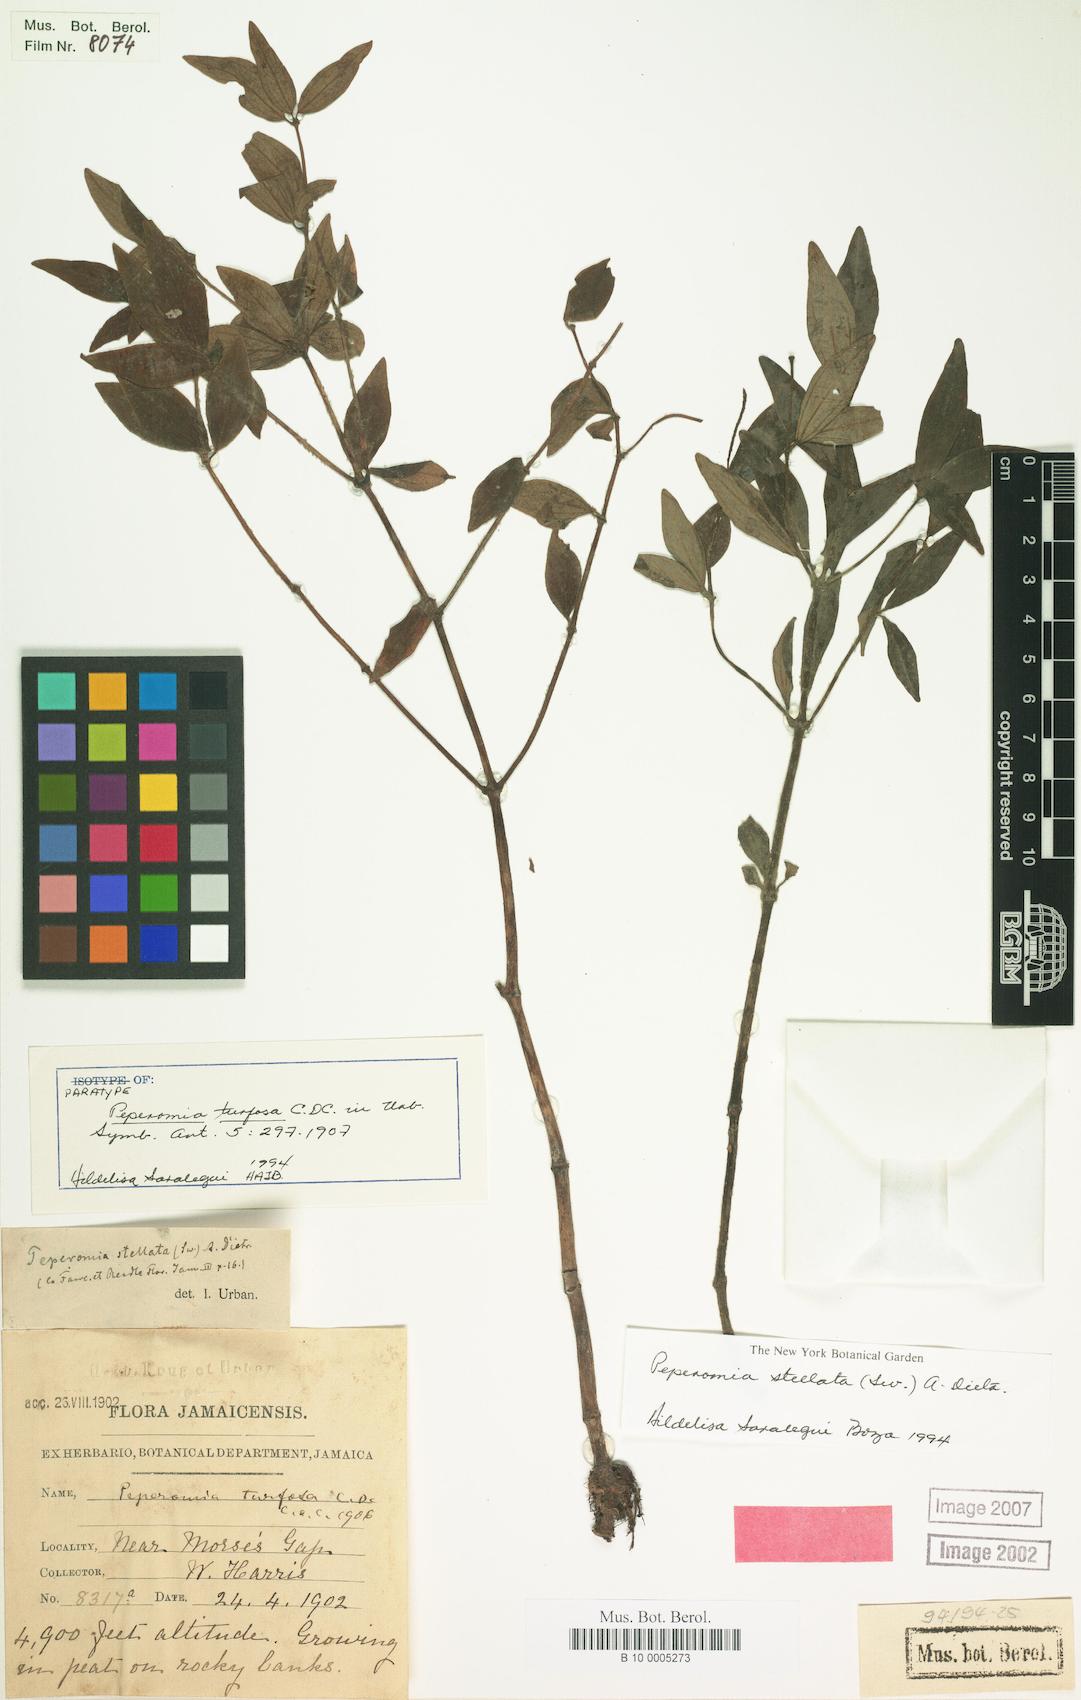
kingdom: Plantae
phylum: Tracheophyta
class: Magnoliopsida
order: Piperales
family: Piperaceae
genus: Peperomia
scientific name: Peperomia stellata
